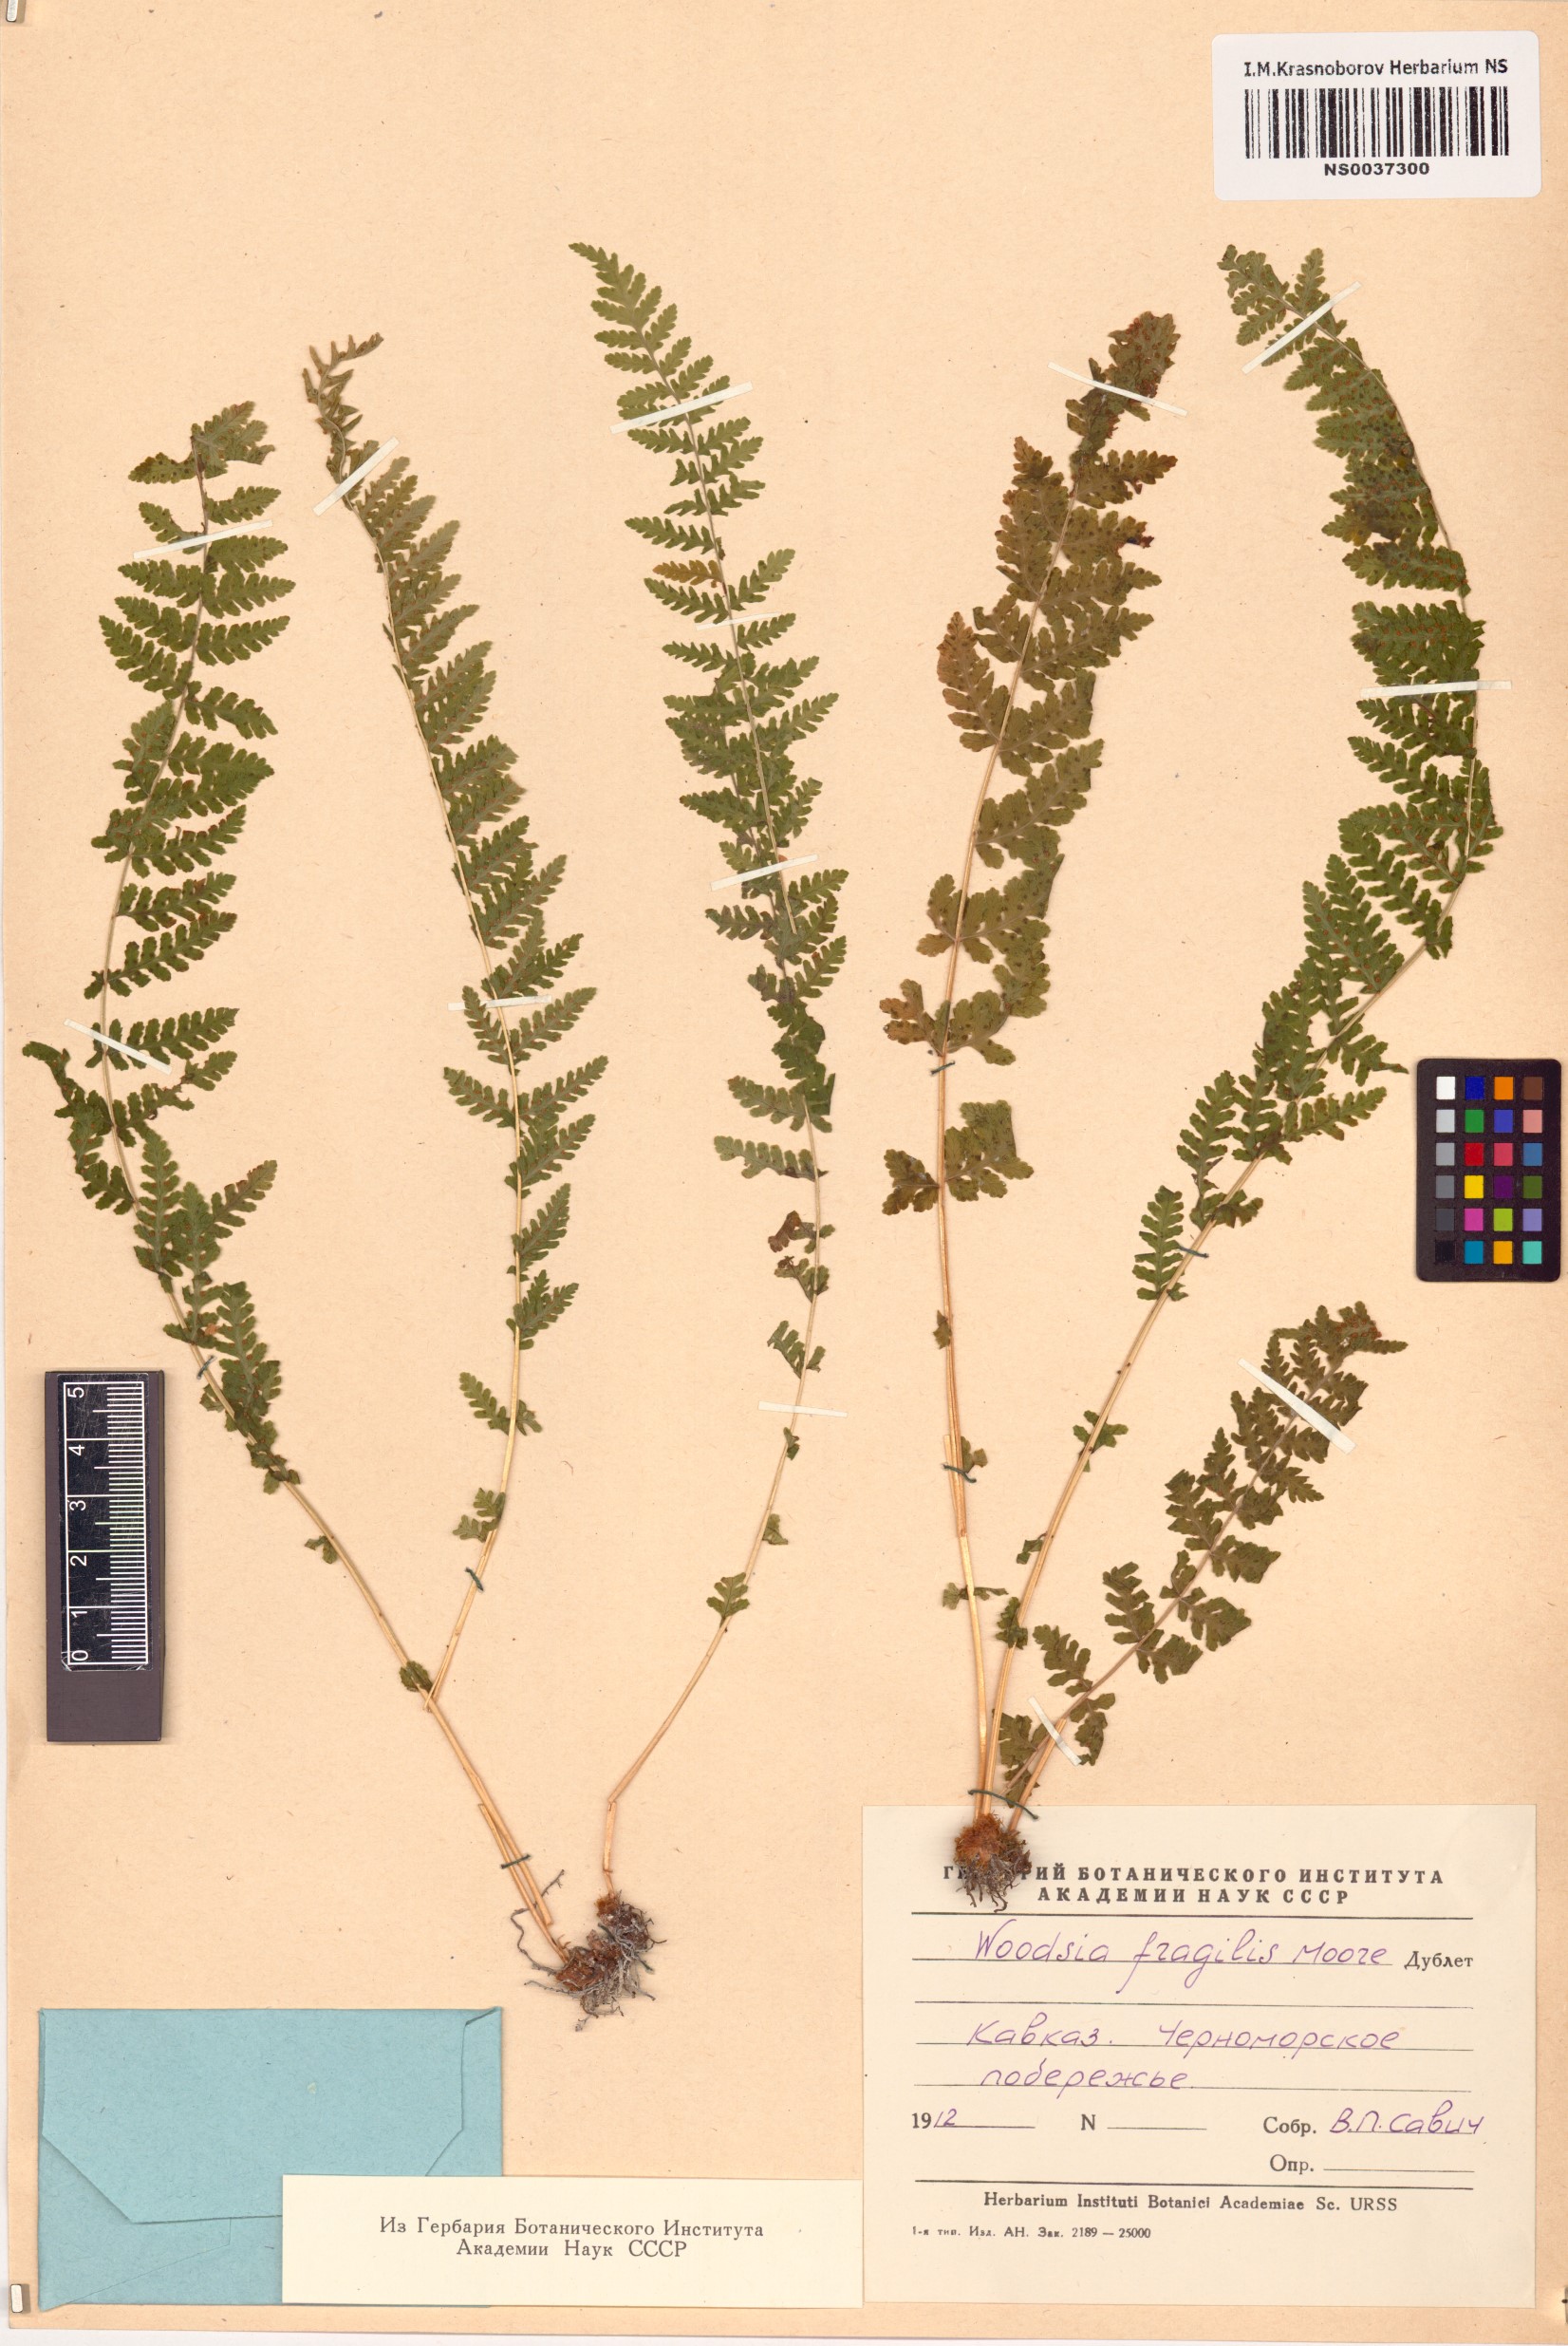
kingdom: Plantae
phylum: Tracheophyta
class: Polypodiopsida
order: Polypodiales
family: Woodsiaceae
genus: Physematium
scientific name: Physematium fragile
